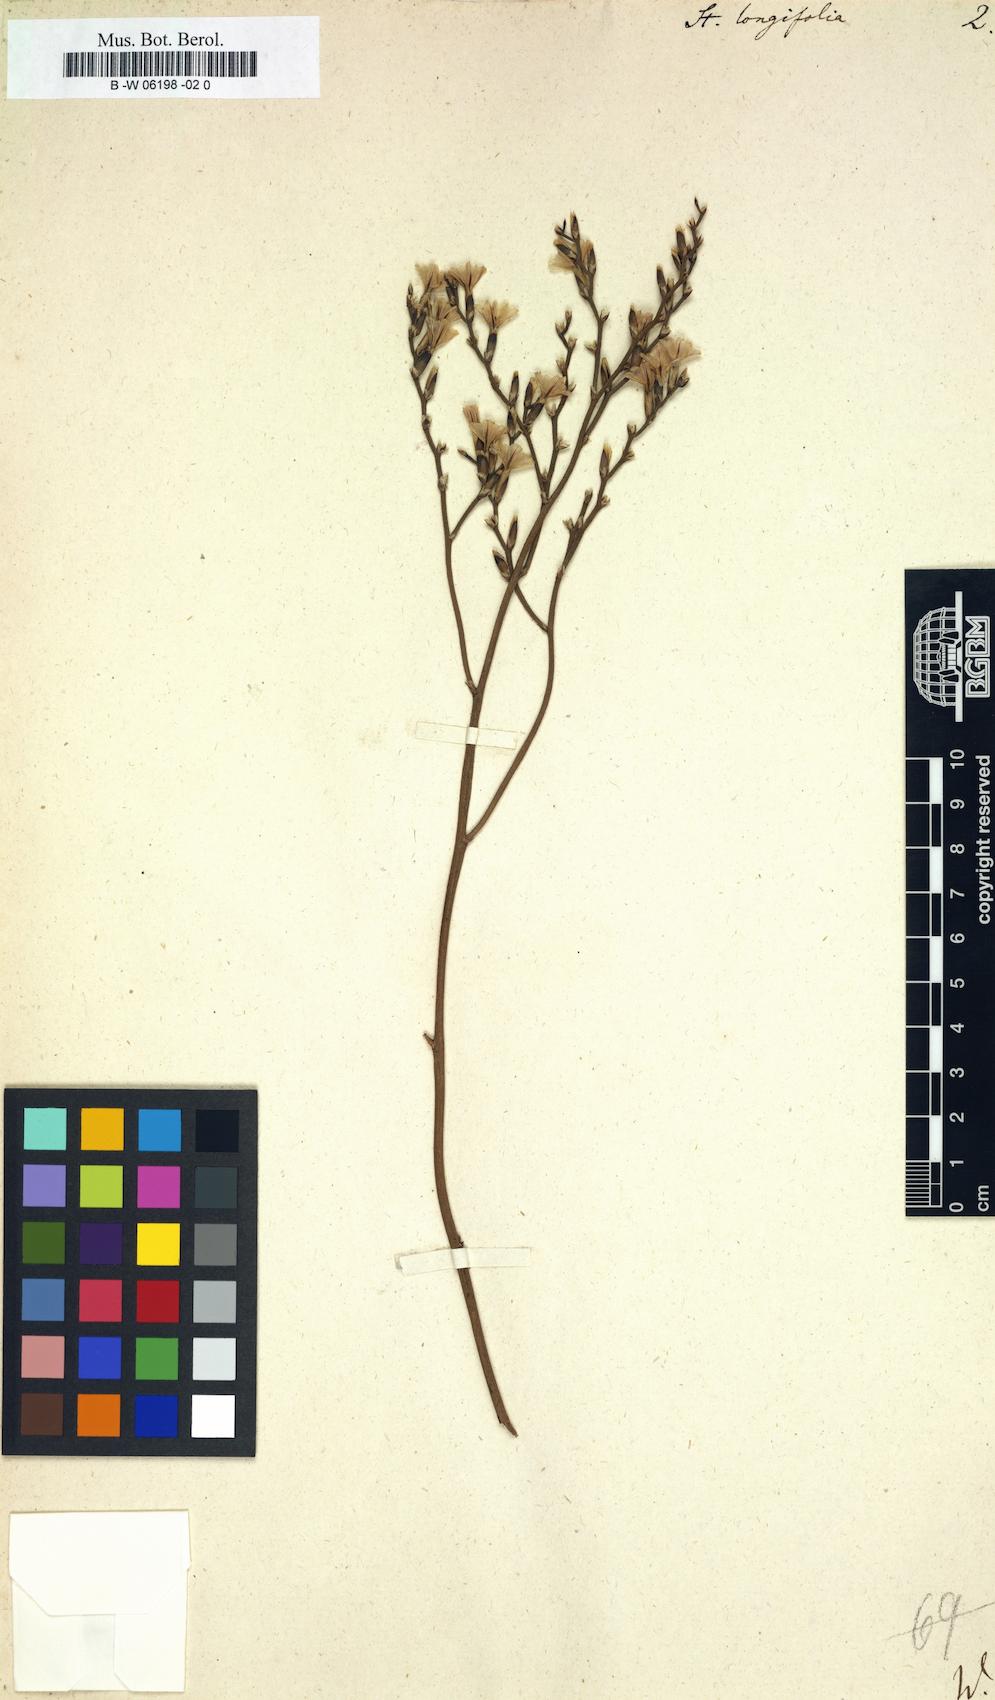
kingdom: Plantae
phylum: Tracheophyta
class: Magnoliopsida
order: Caryophyllales
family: Plumbaginaceae
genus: Limonium
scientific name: Limonium longifolium
